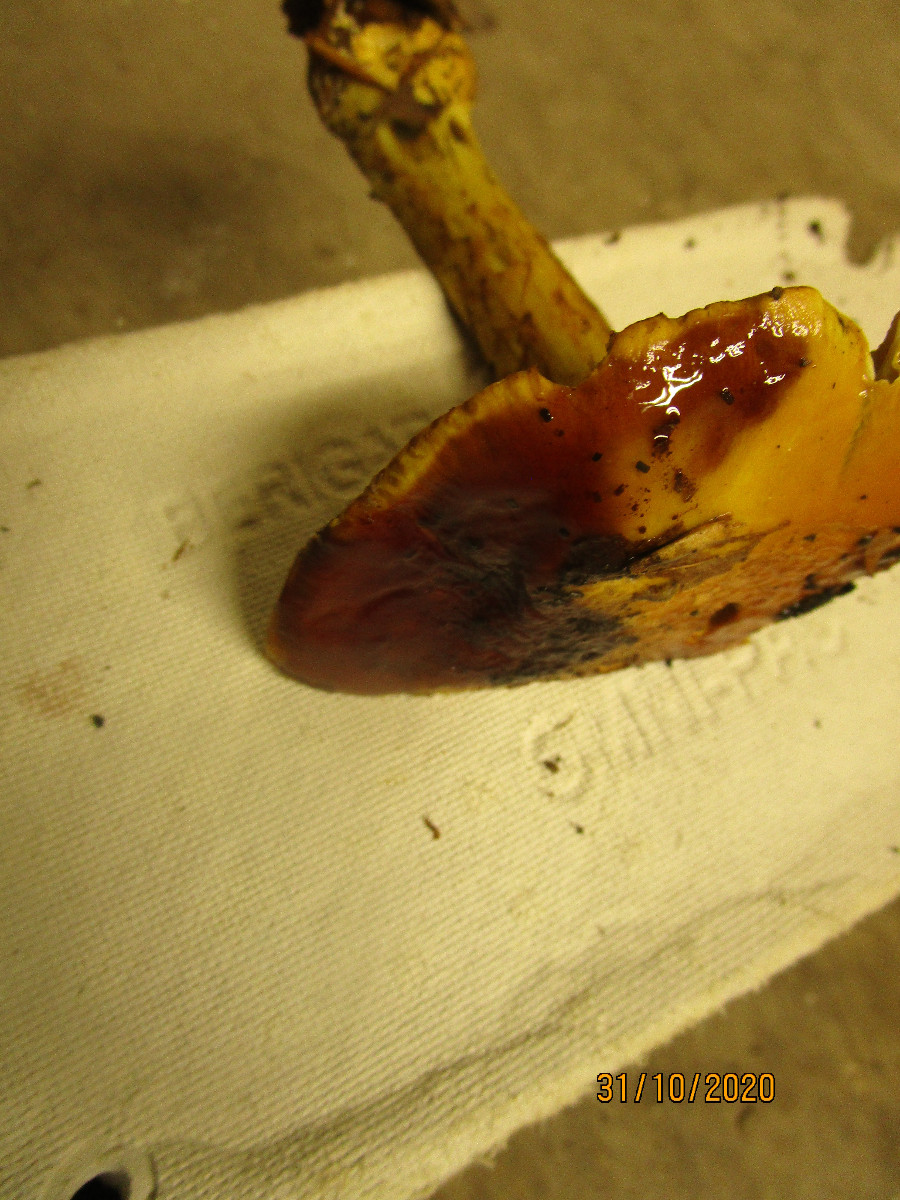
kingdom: Fungi
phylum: Basidiomycota
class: Agaricomycetes
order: Agaricales
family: Cortinariaceae
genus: Calonarius
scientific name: Calonarius elegantissimus
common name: orangegylden slørhat
